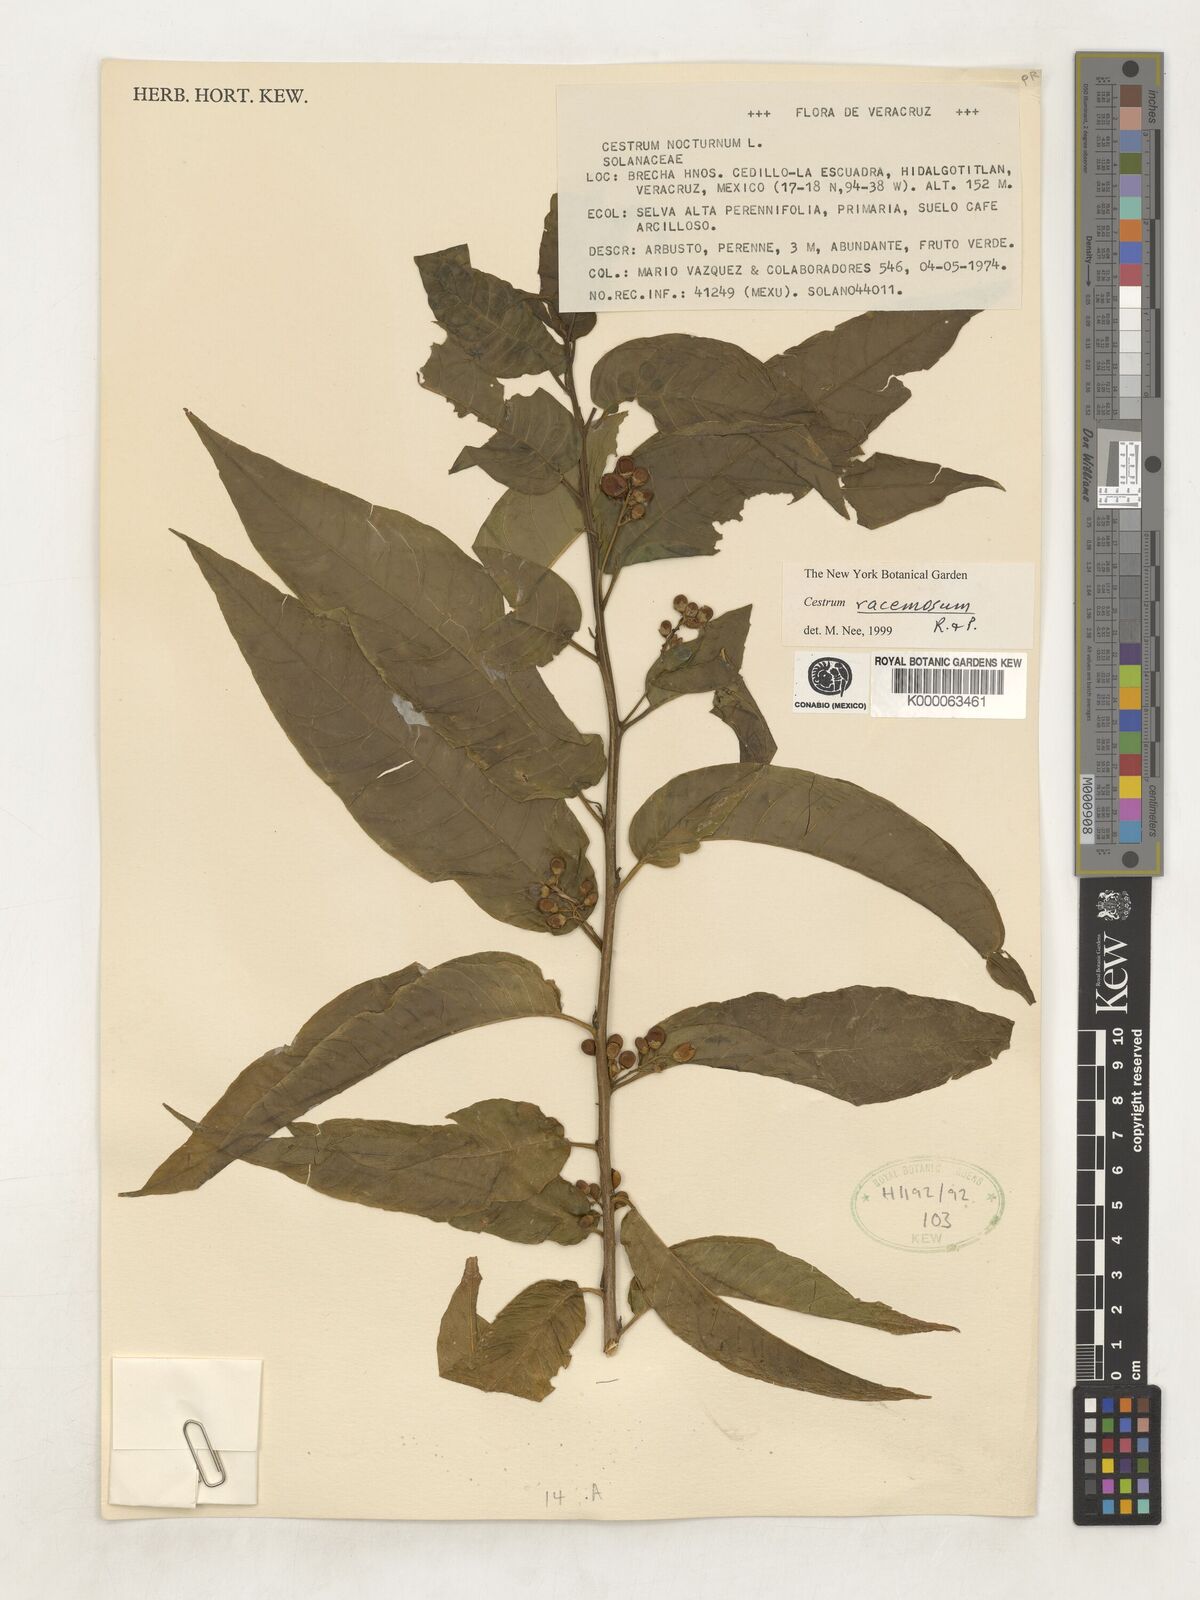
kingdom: Plantae
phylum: Tracheophyta
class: Magnoliopsida
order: Solanales
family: Solanaceae
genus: Cestrum
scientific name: Cestrum racemosum
